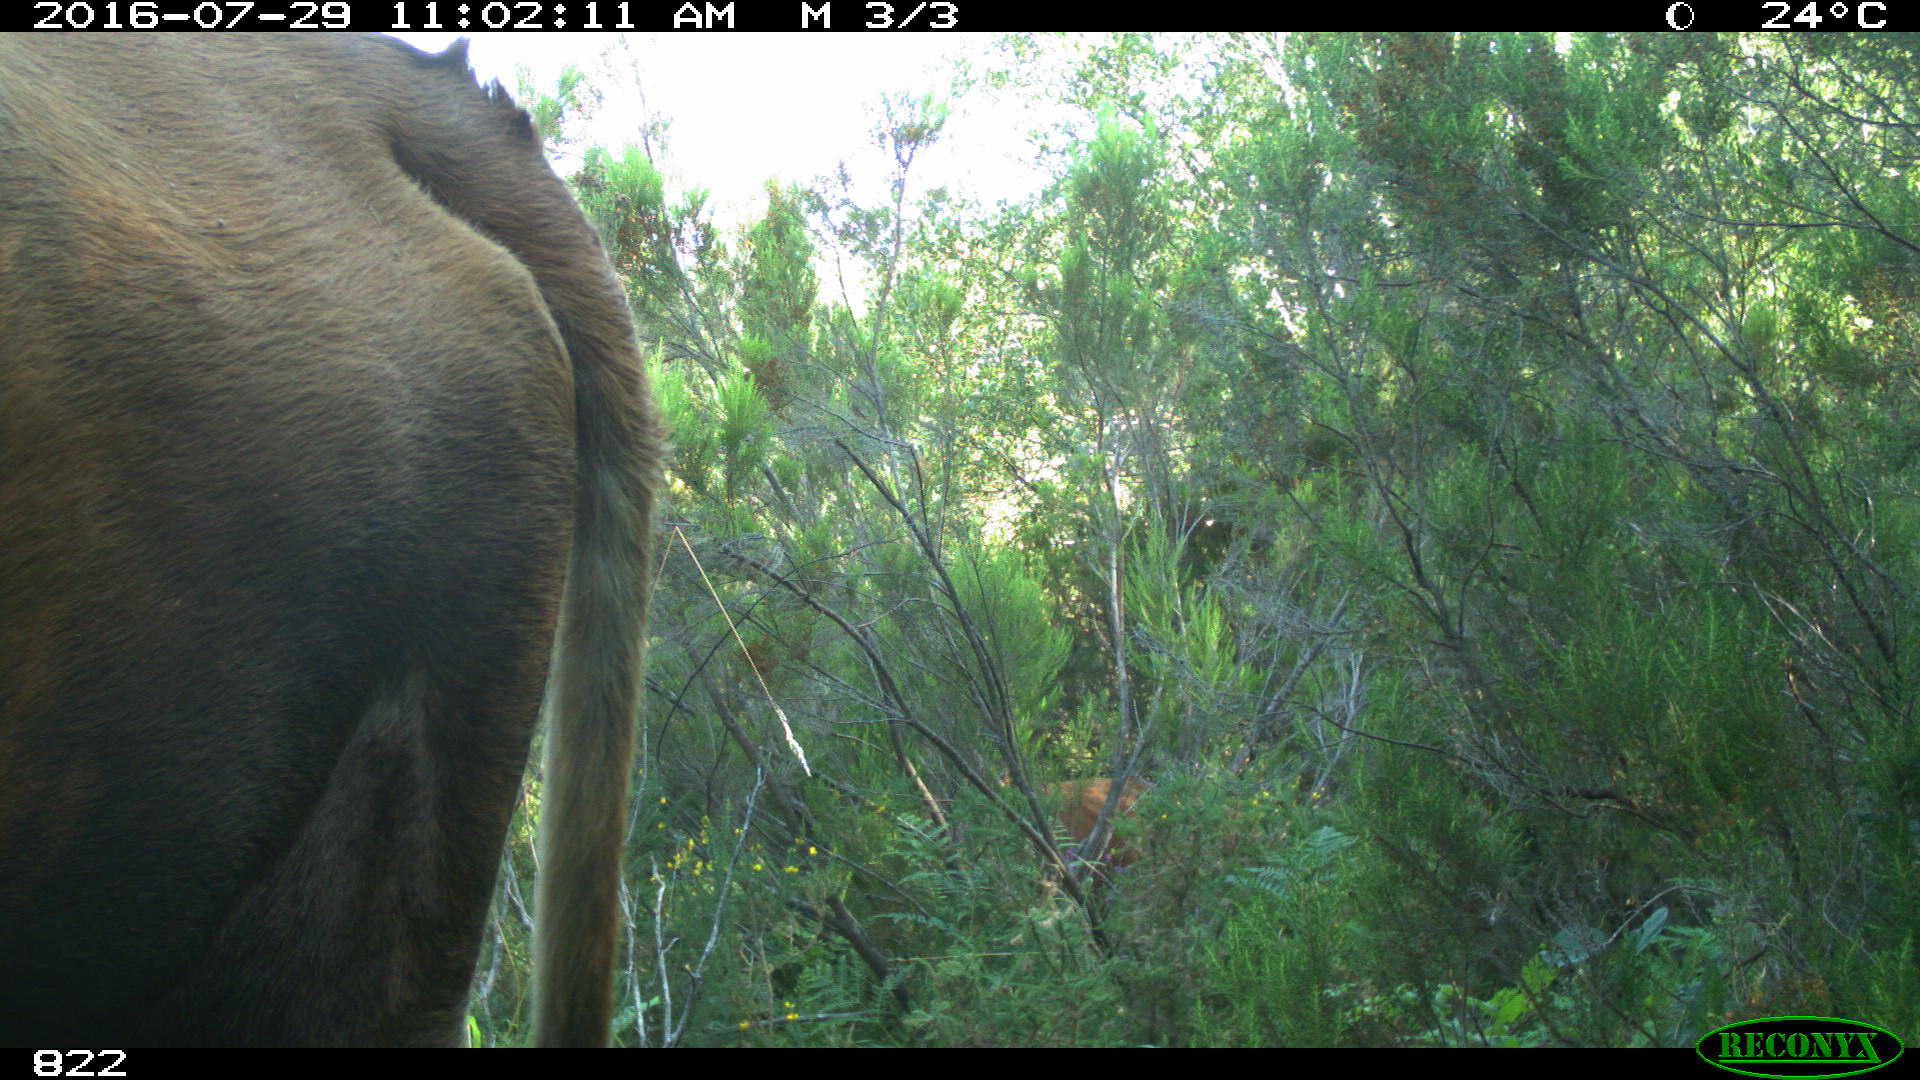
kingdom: Animalia
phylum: Chordata
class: Mammalia
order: Artiodactyla
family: Bovidae
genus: Bos
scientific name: Bos taurus
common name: Domesticated cattle
